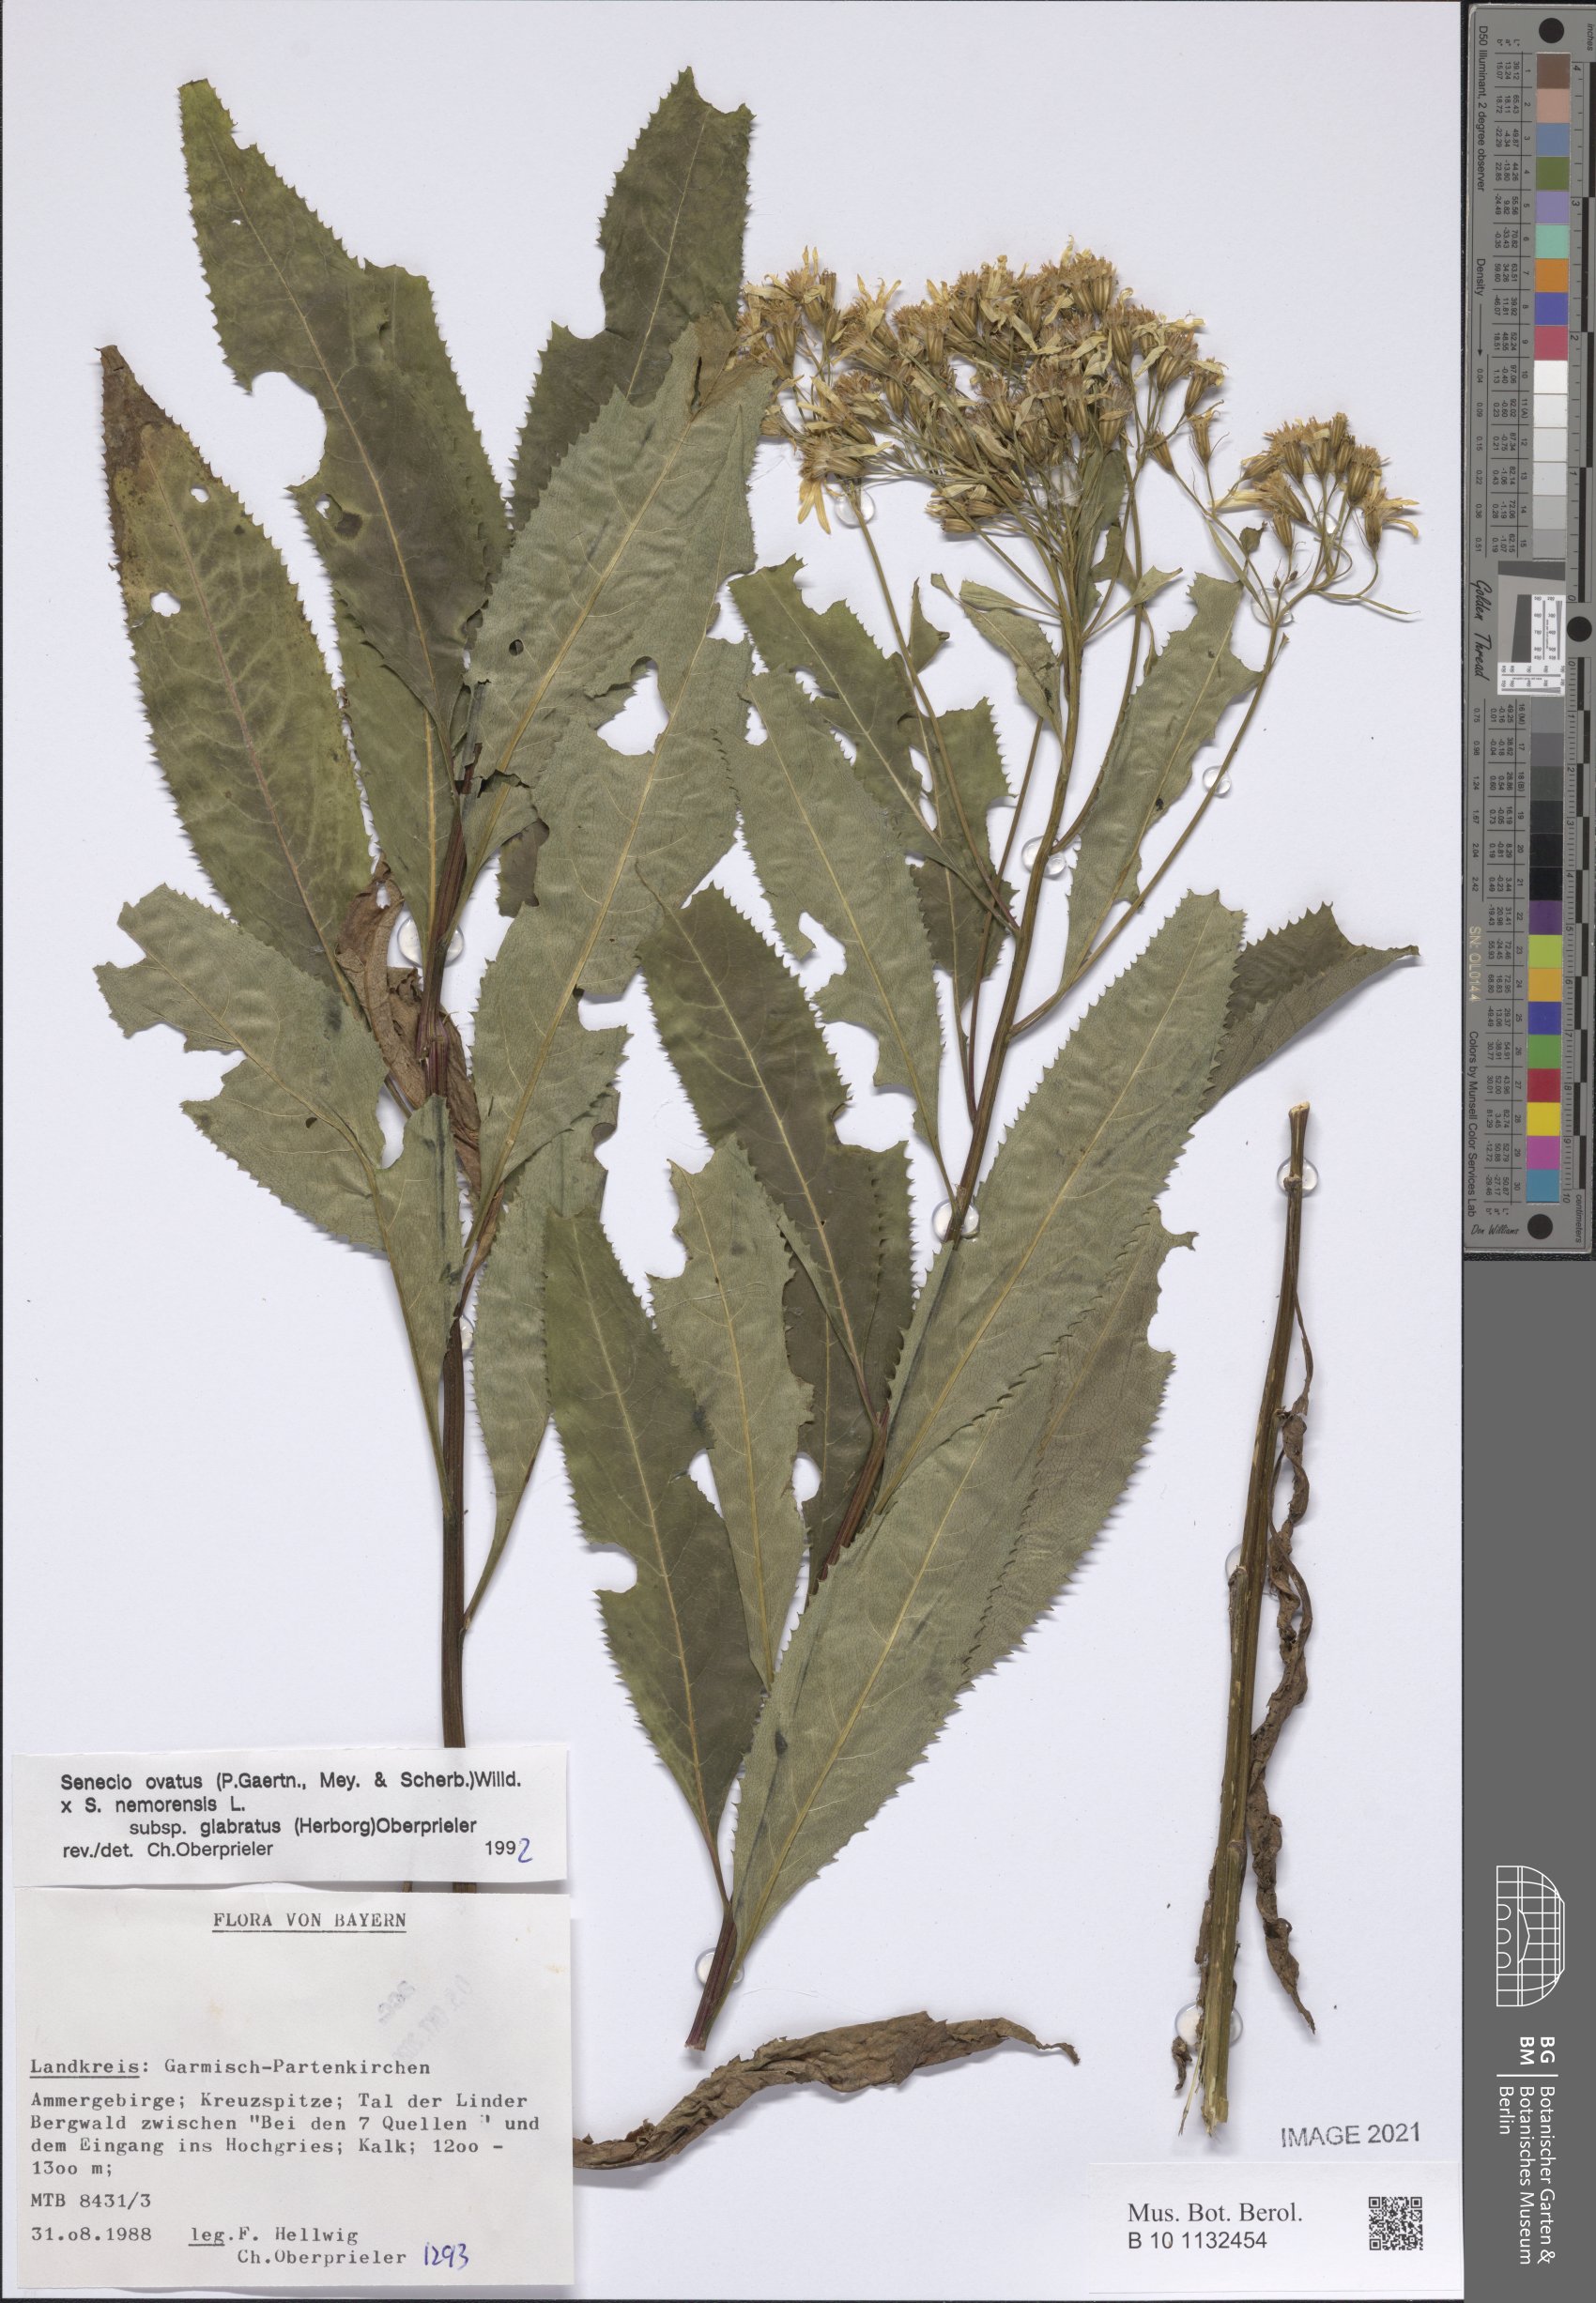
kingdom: Plantae
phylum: Tracheophyta
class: Magnoliopsida
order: Asterales
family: Asteraceae
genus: Senecio
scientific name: Senecio ovatus
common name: Wood ragwort
